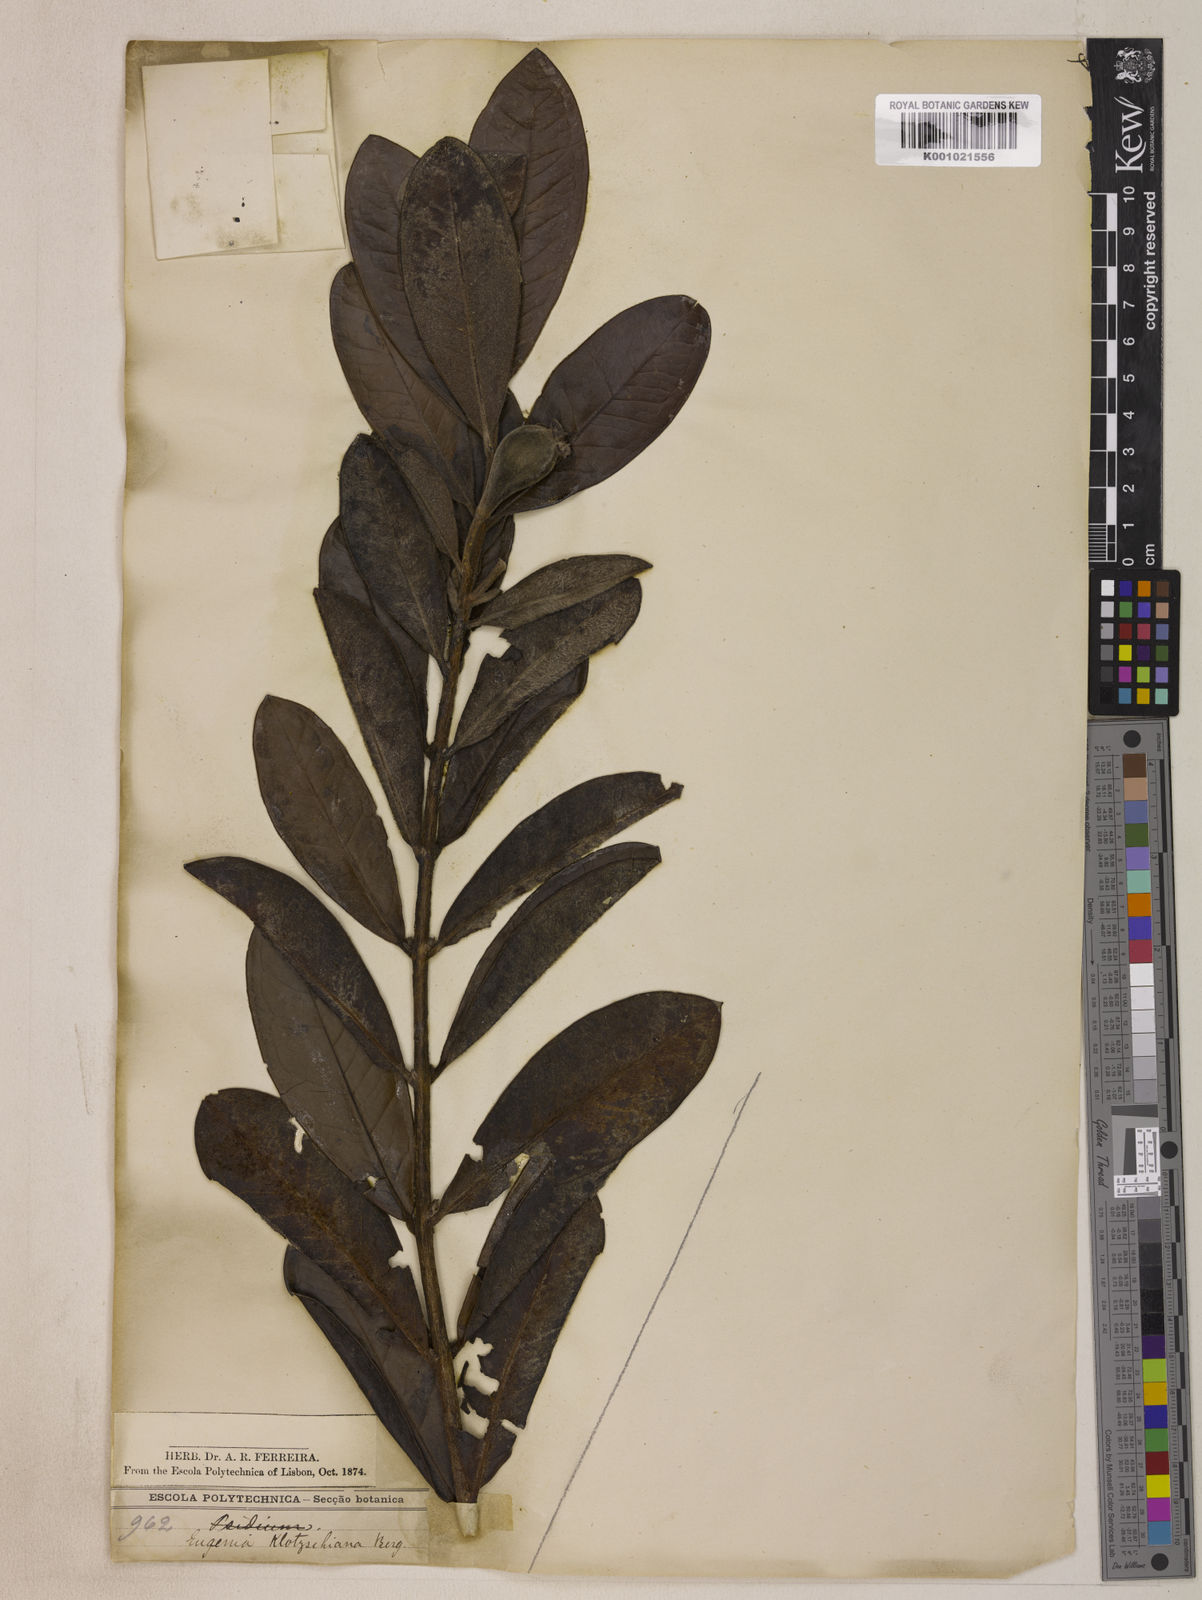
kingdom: Plantae
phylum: Tracheophyta
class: Magnoliopsida
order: Myrtales
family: Myrtaceae
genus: Eugenia
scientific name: Eugenia klotzschiana
